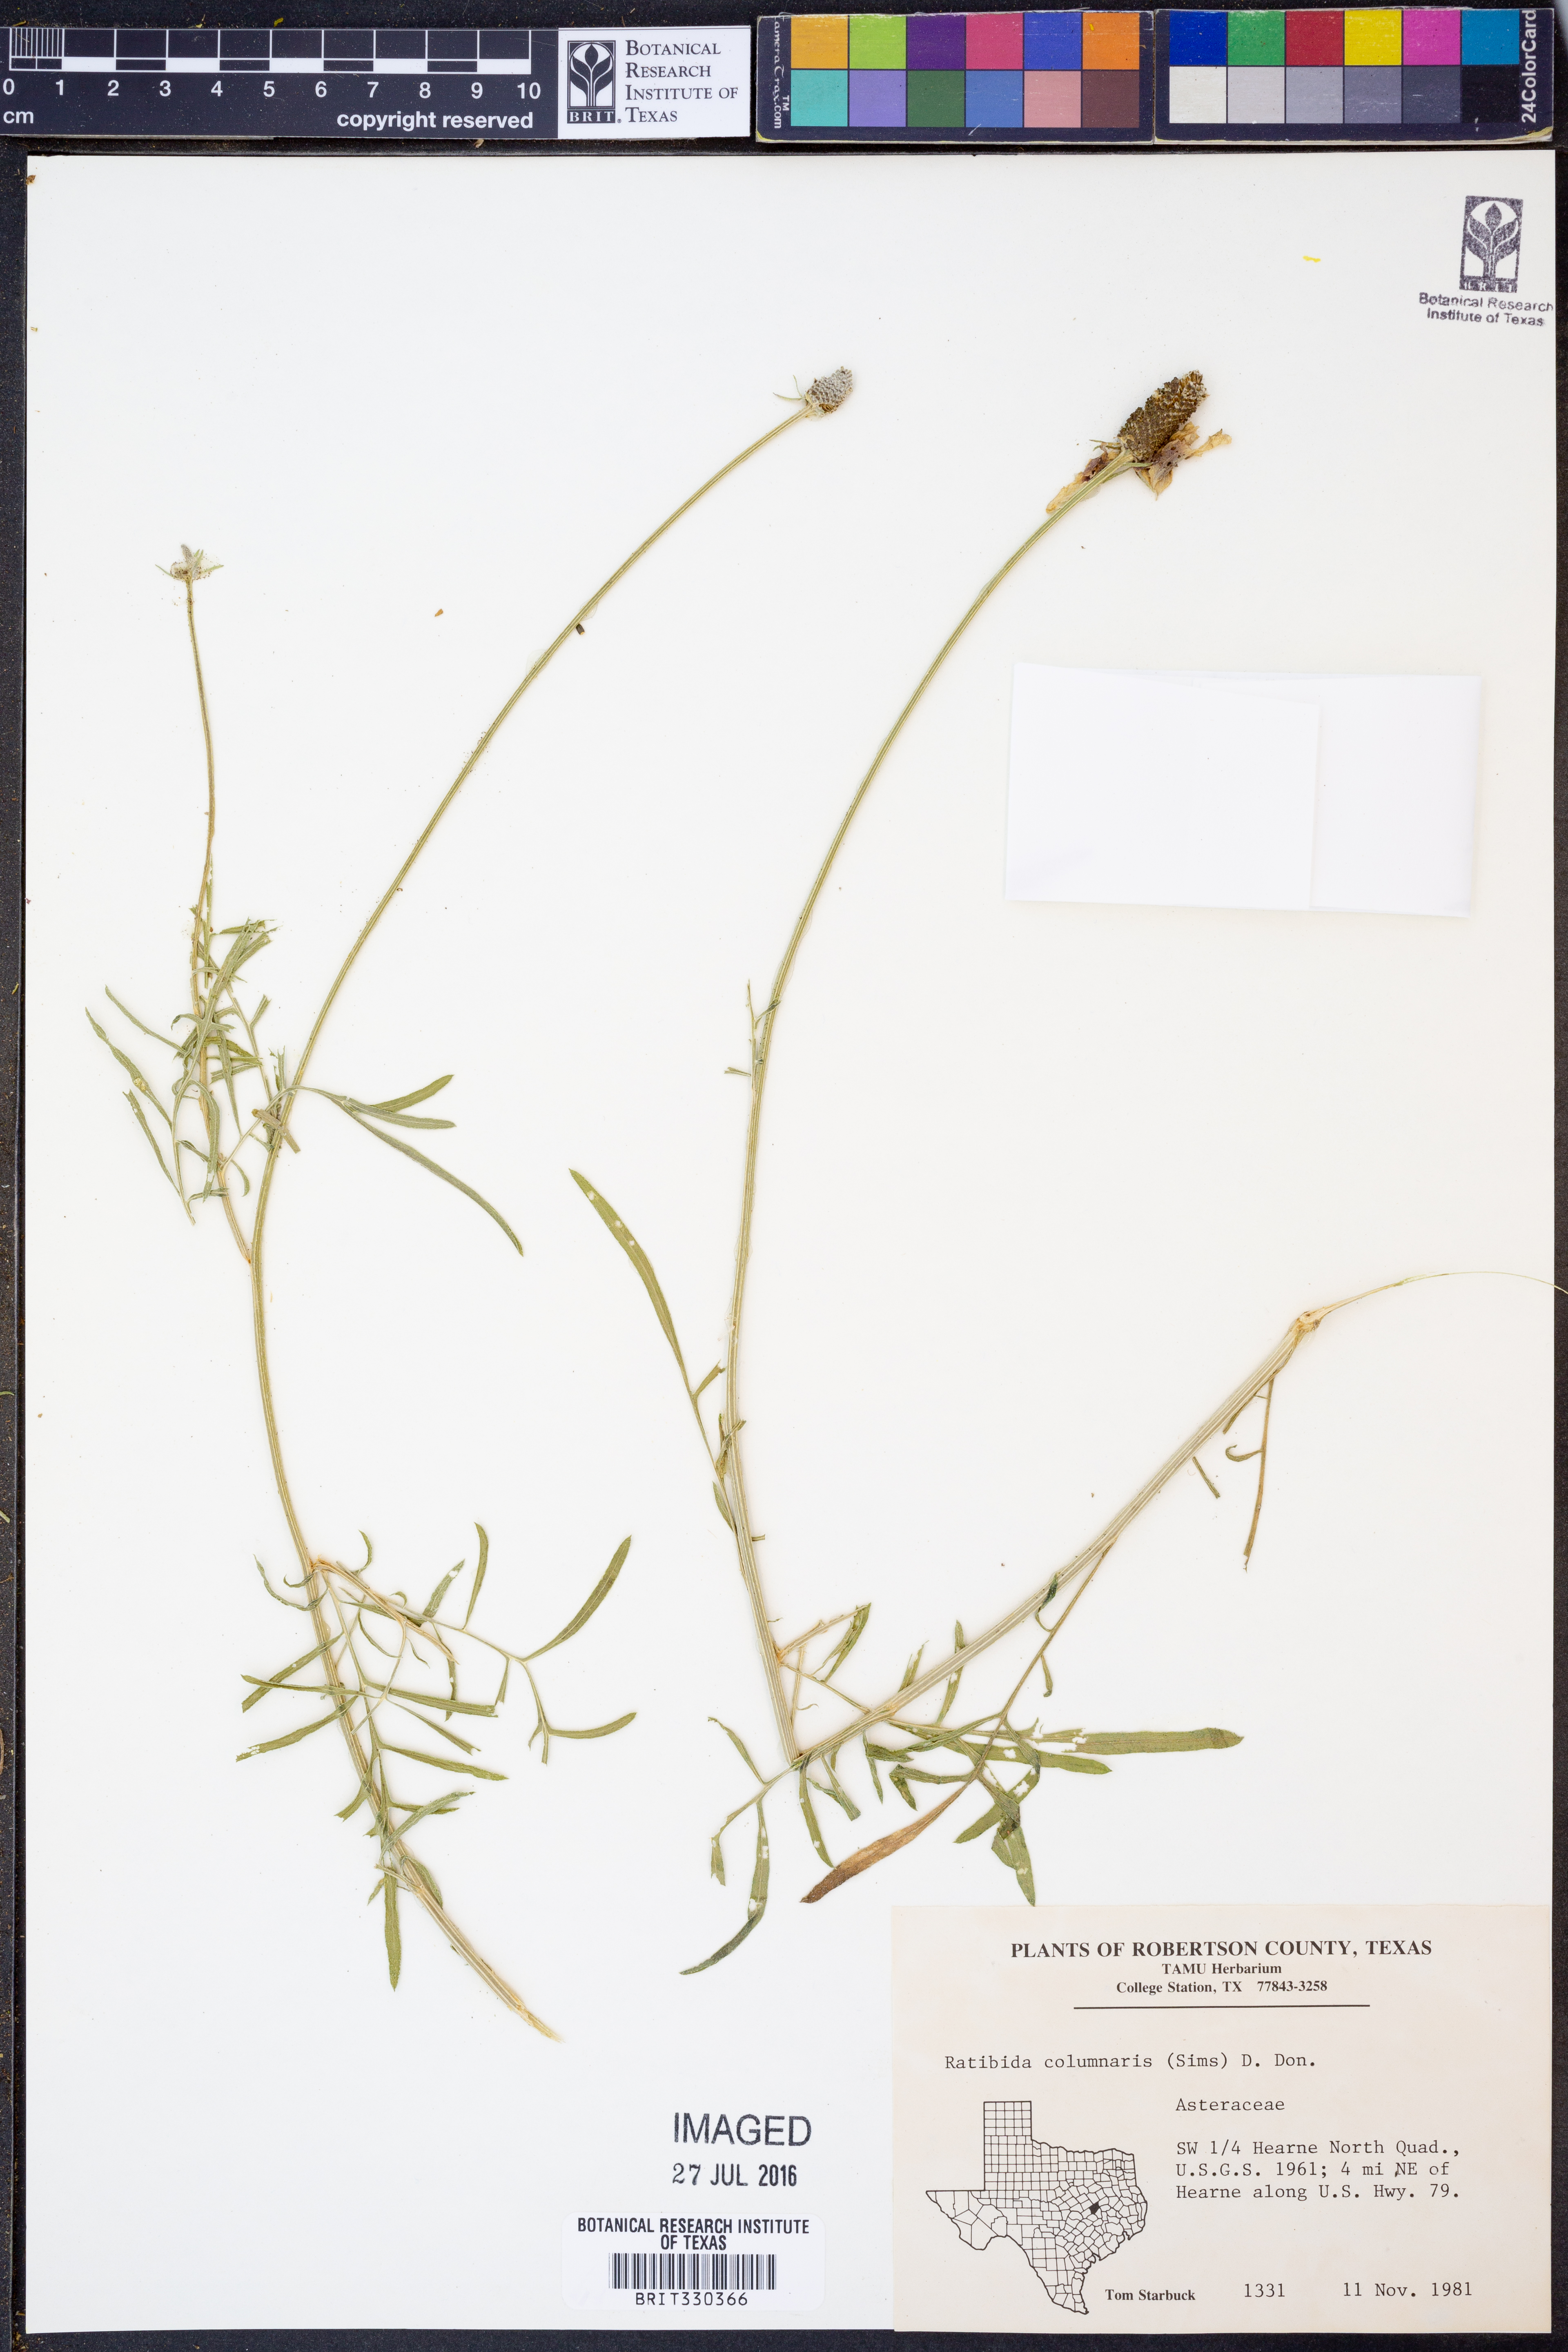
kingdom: Plantae
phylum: Tracheophyta
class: Magnoliopsida
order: Asterales
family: Asteraceae
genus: Ratibida
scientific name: Ratibida columnifera
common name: Prairie coneflower
